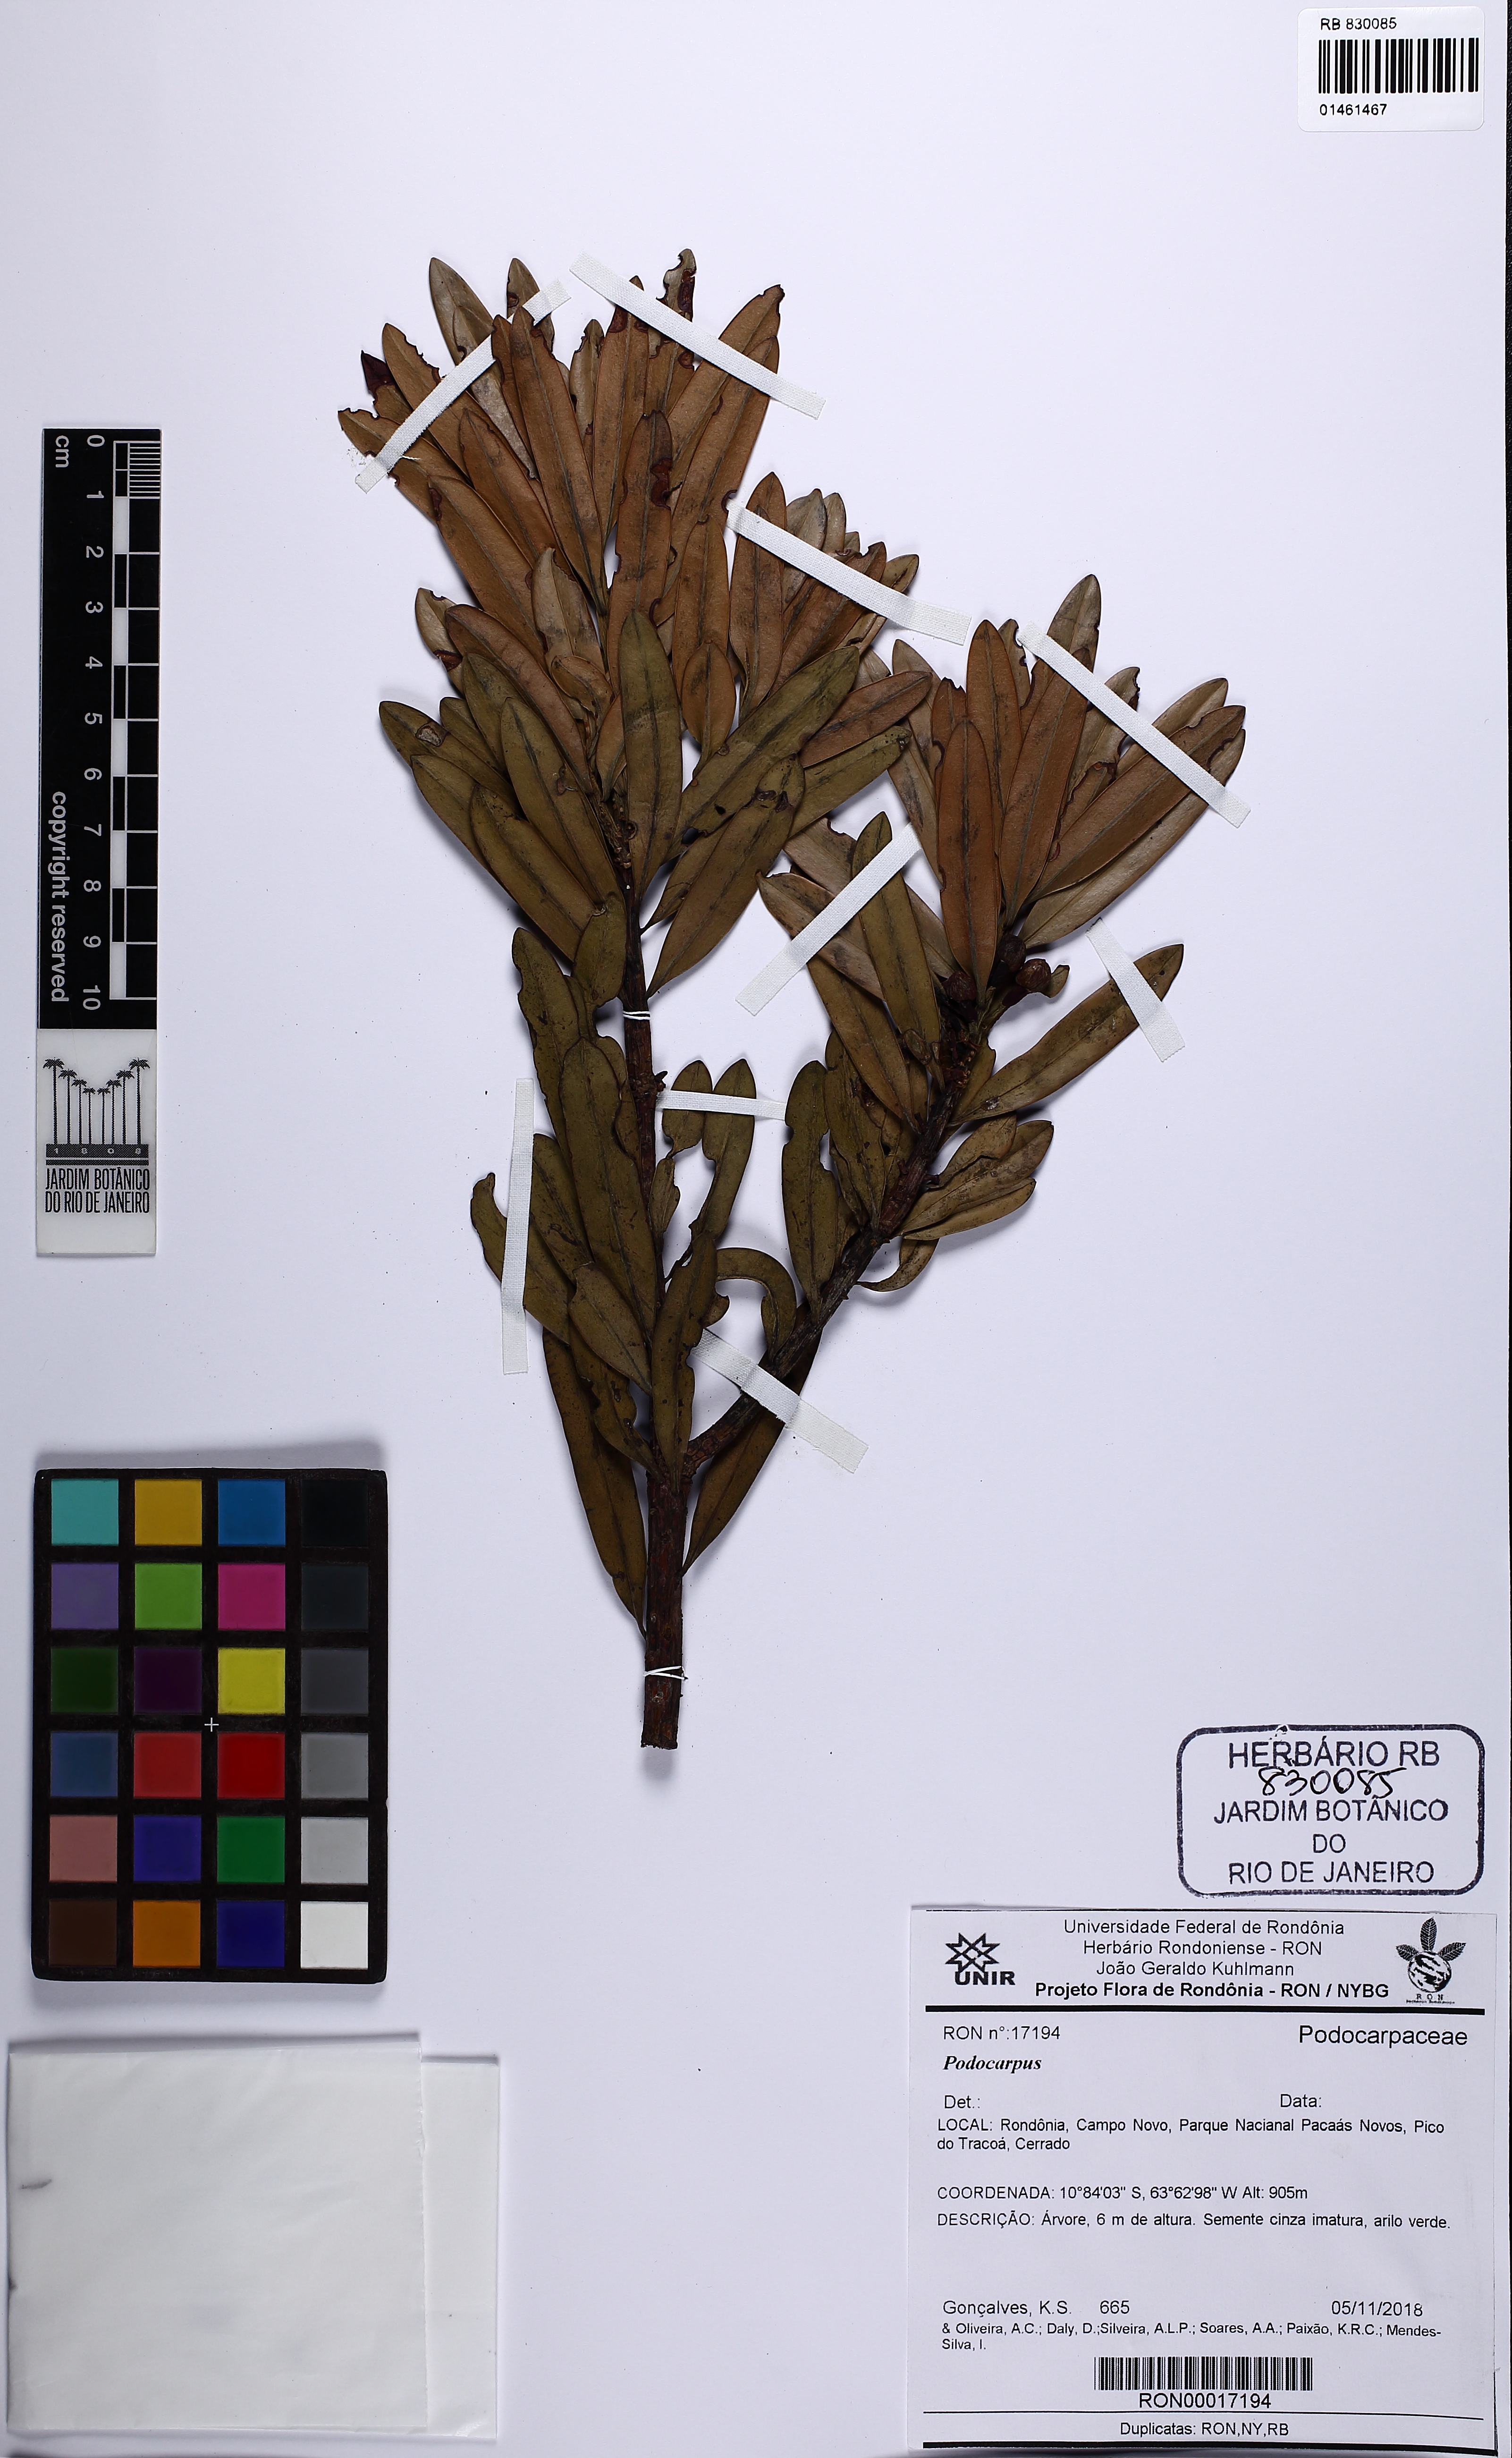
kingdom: Plantae
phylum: Tracheophyta
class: Pinopsida
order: Pinales
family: Podocarpaceae
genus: Podocarpus
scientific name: Podocarpus
